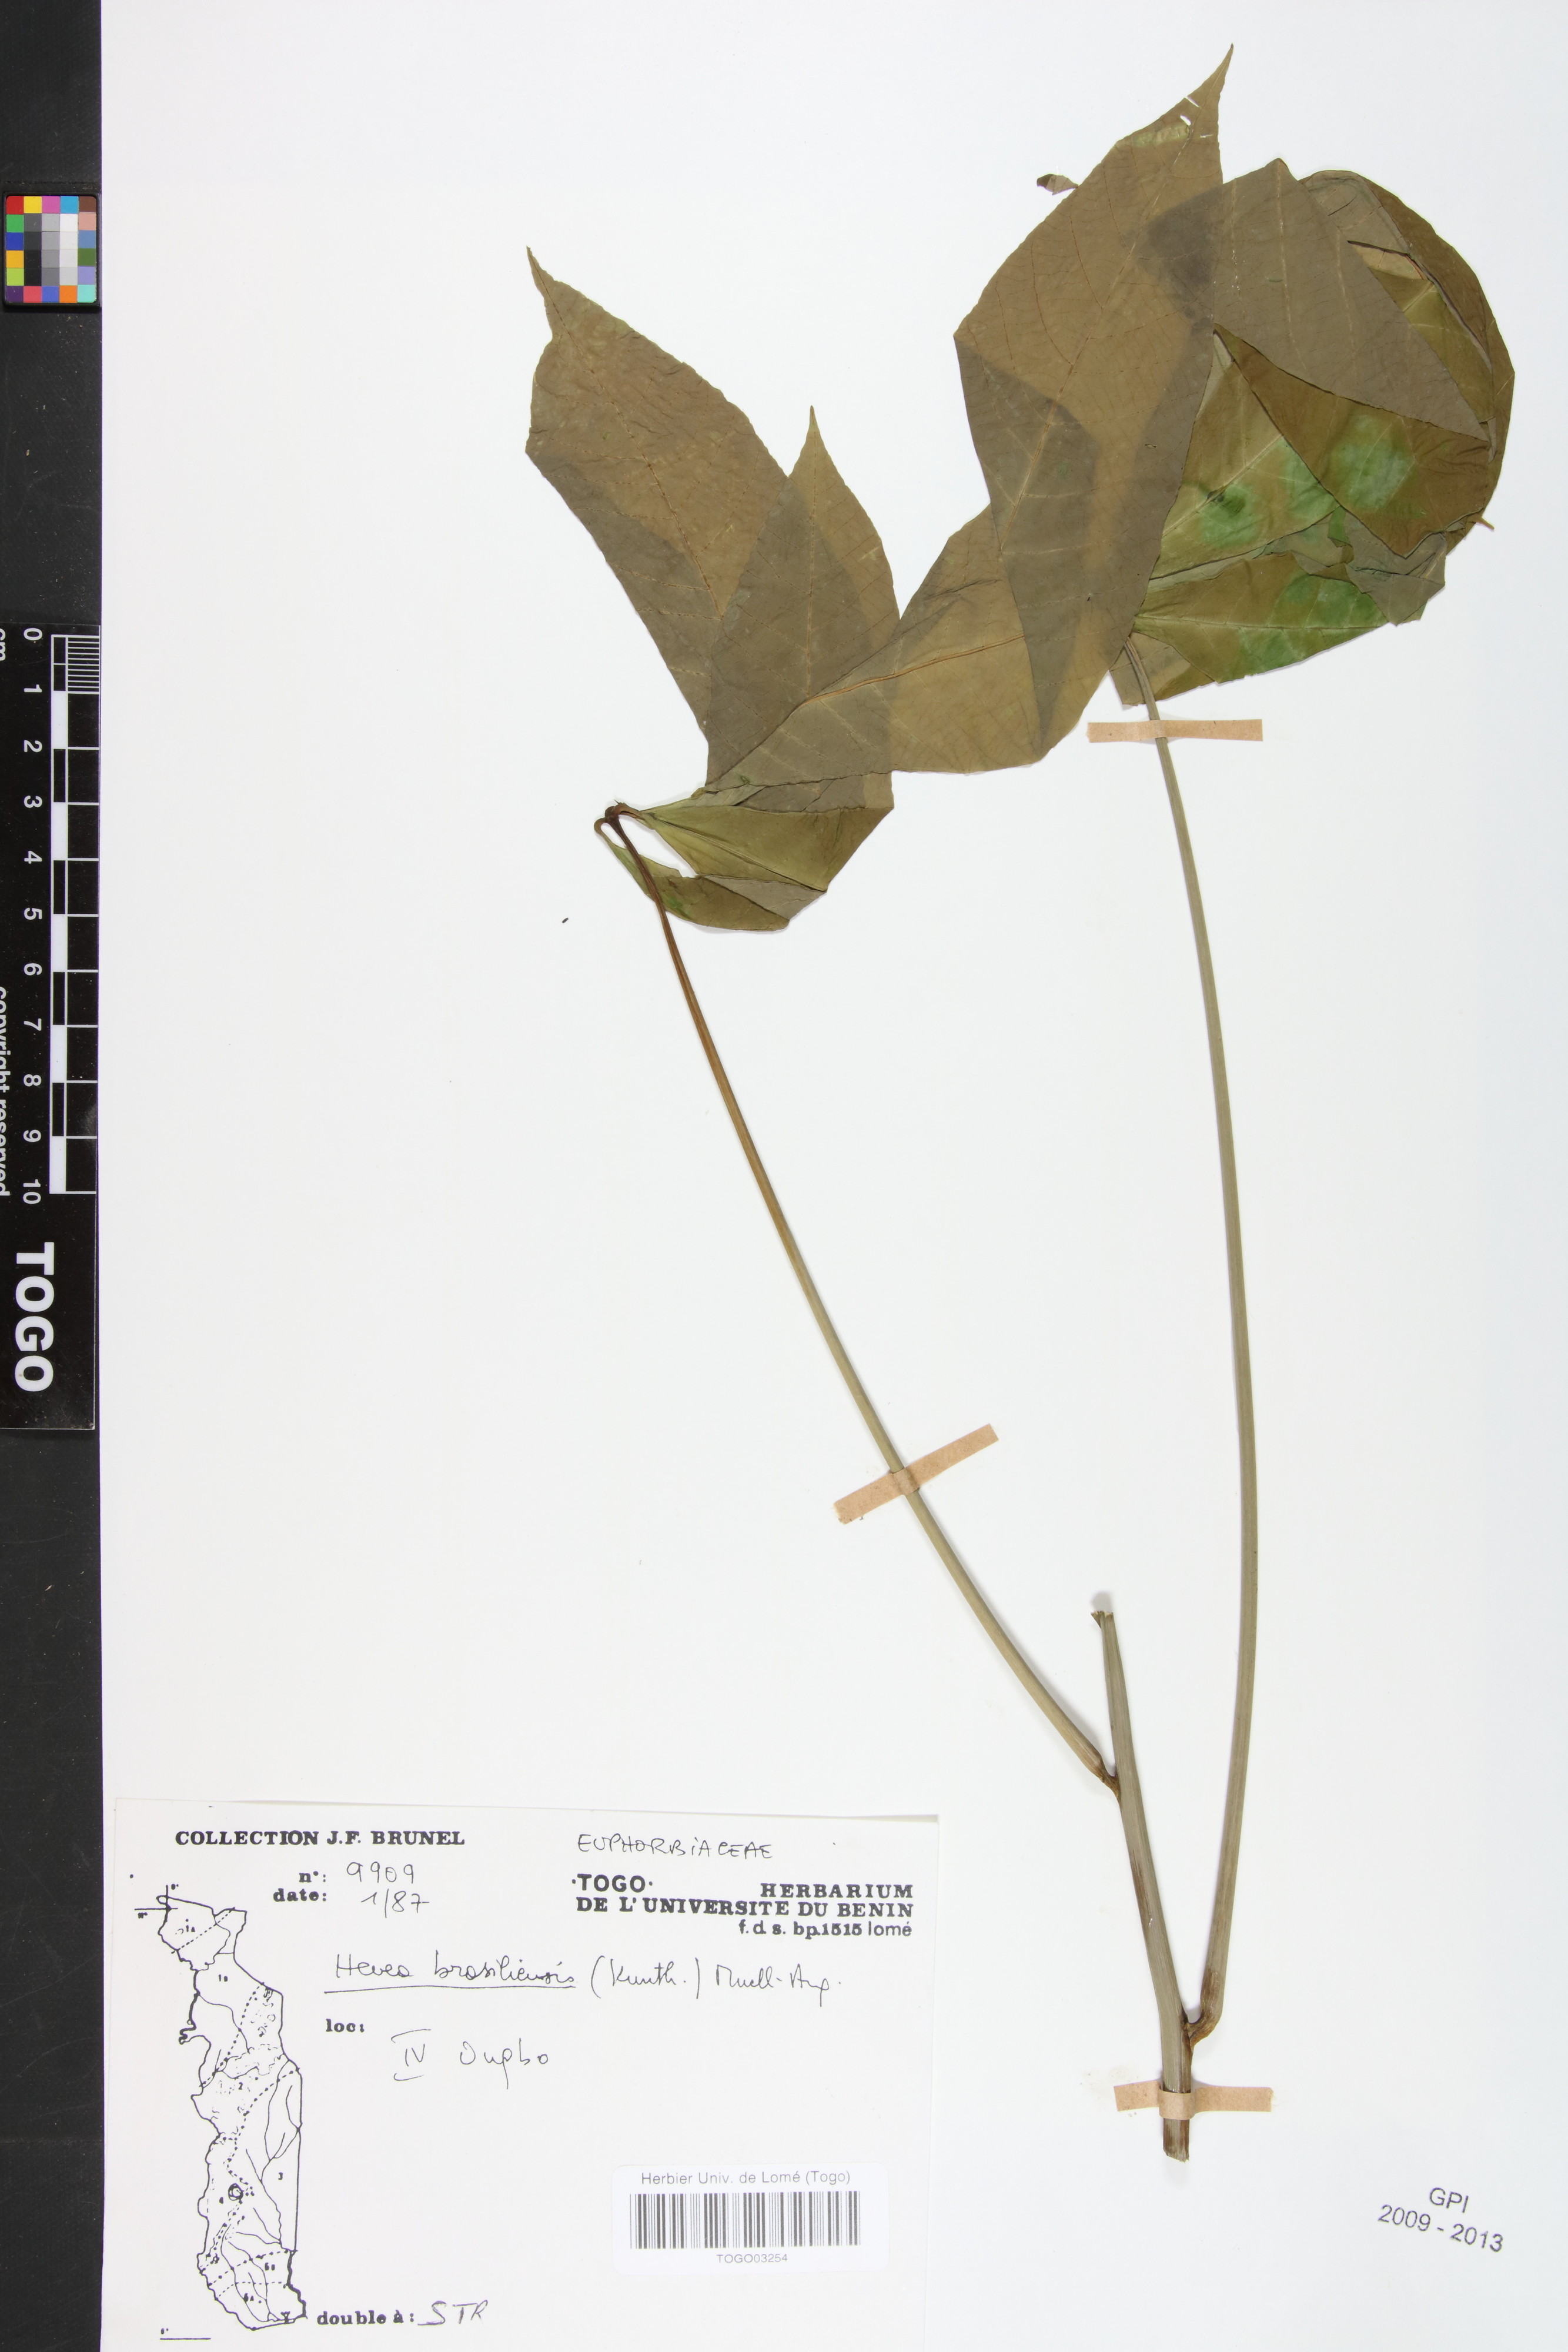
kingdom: Plantae
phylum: Tracheophyta
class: Magnoliopsida
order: Malpighiales
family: Euphorbiaceae
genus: Hevea
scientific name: Hevea brasiliensis
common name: Natural rubber
